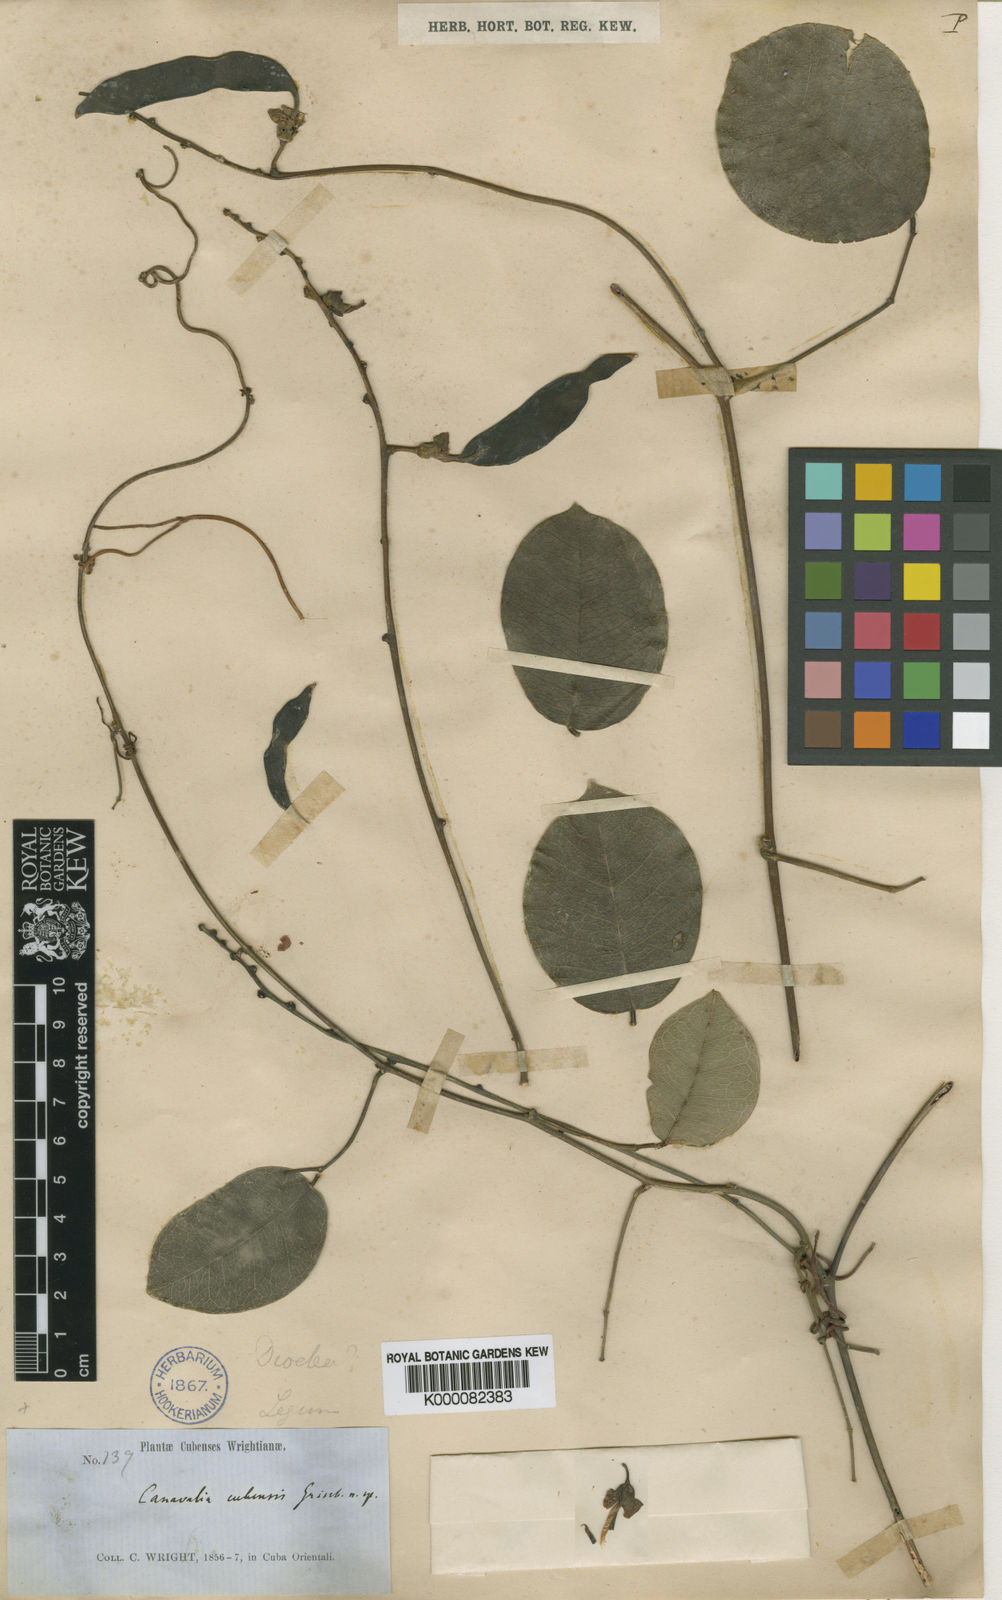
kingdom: Plantae
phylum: Tracheophyta
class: Magnoliopsida
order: Fabales
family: Fabaceae
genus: Canavalia
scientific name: Canavalia nitida
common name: Cathie's-bean
